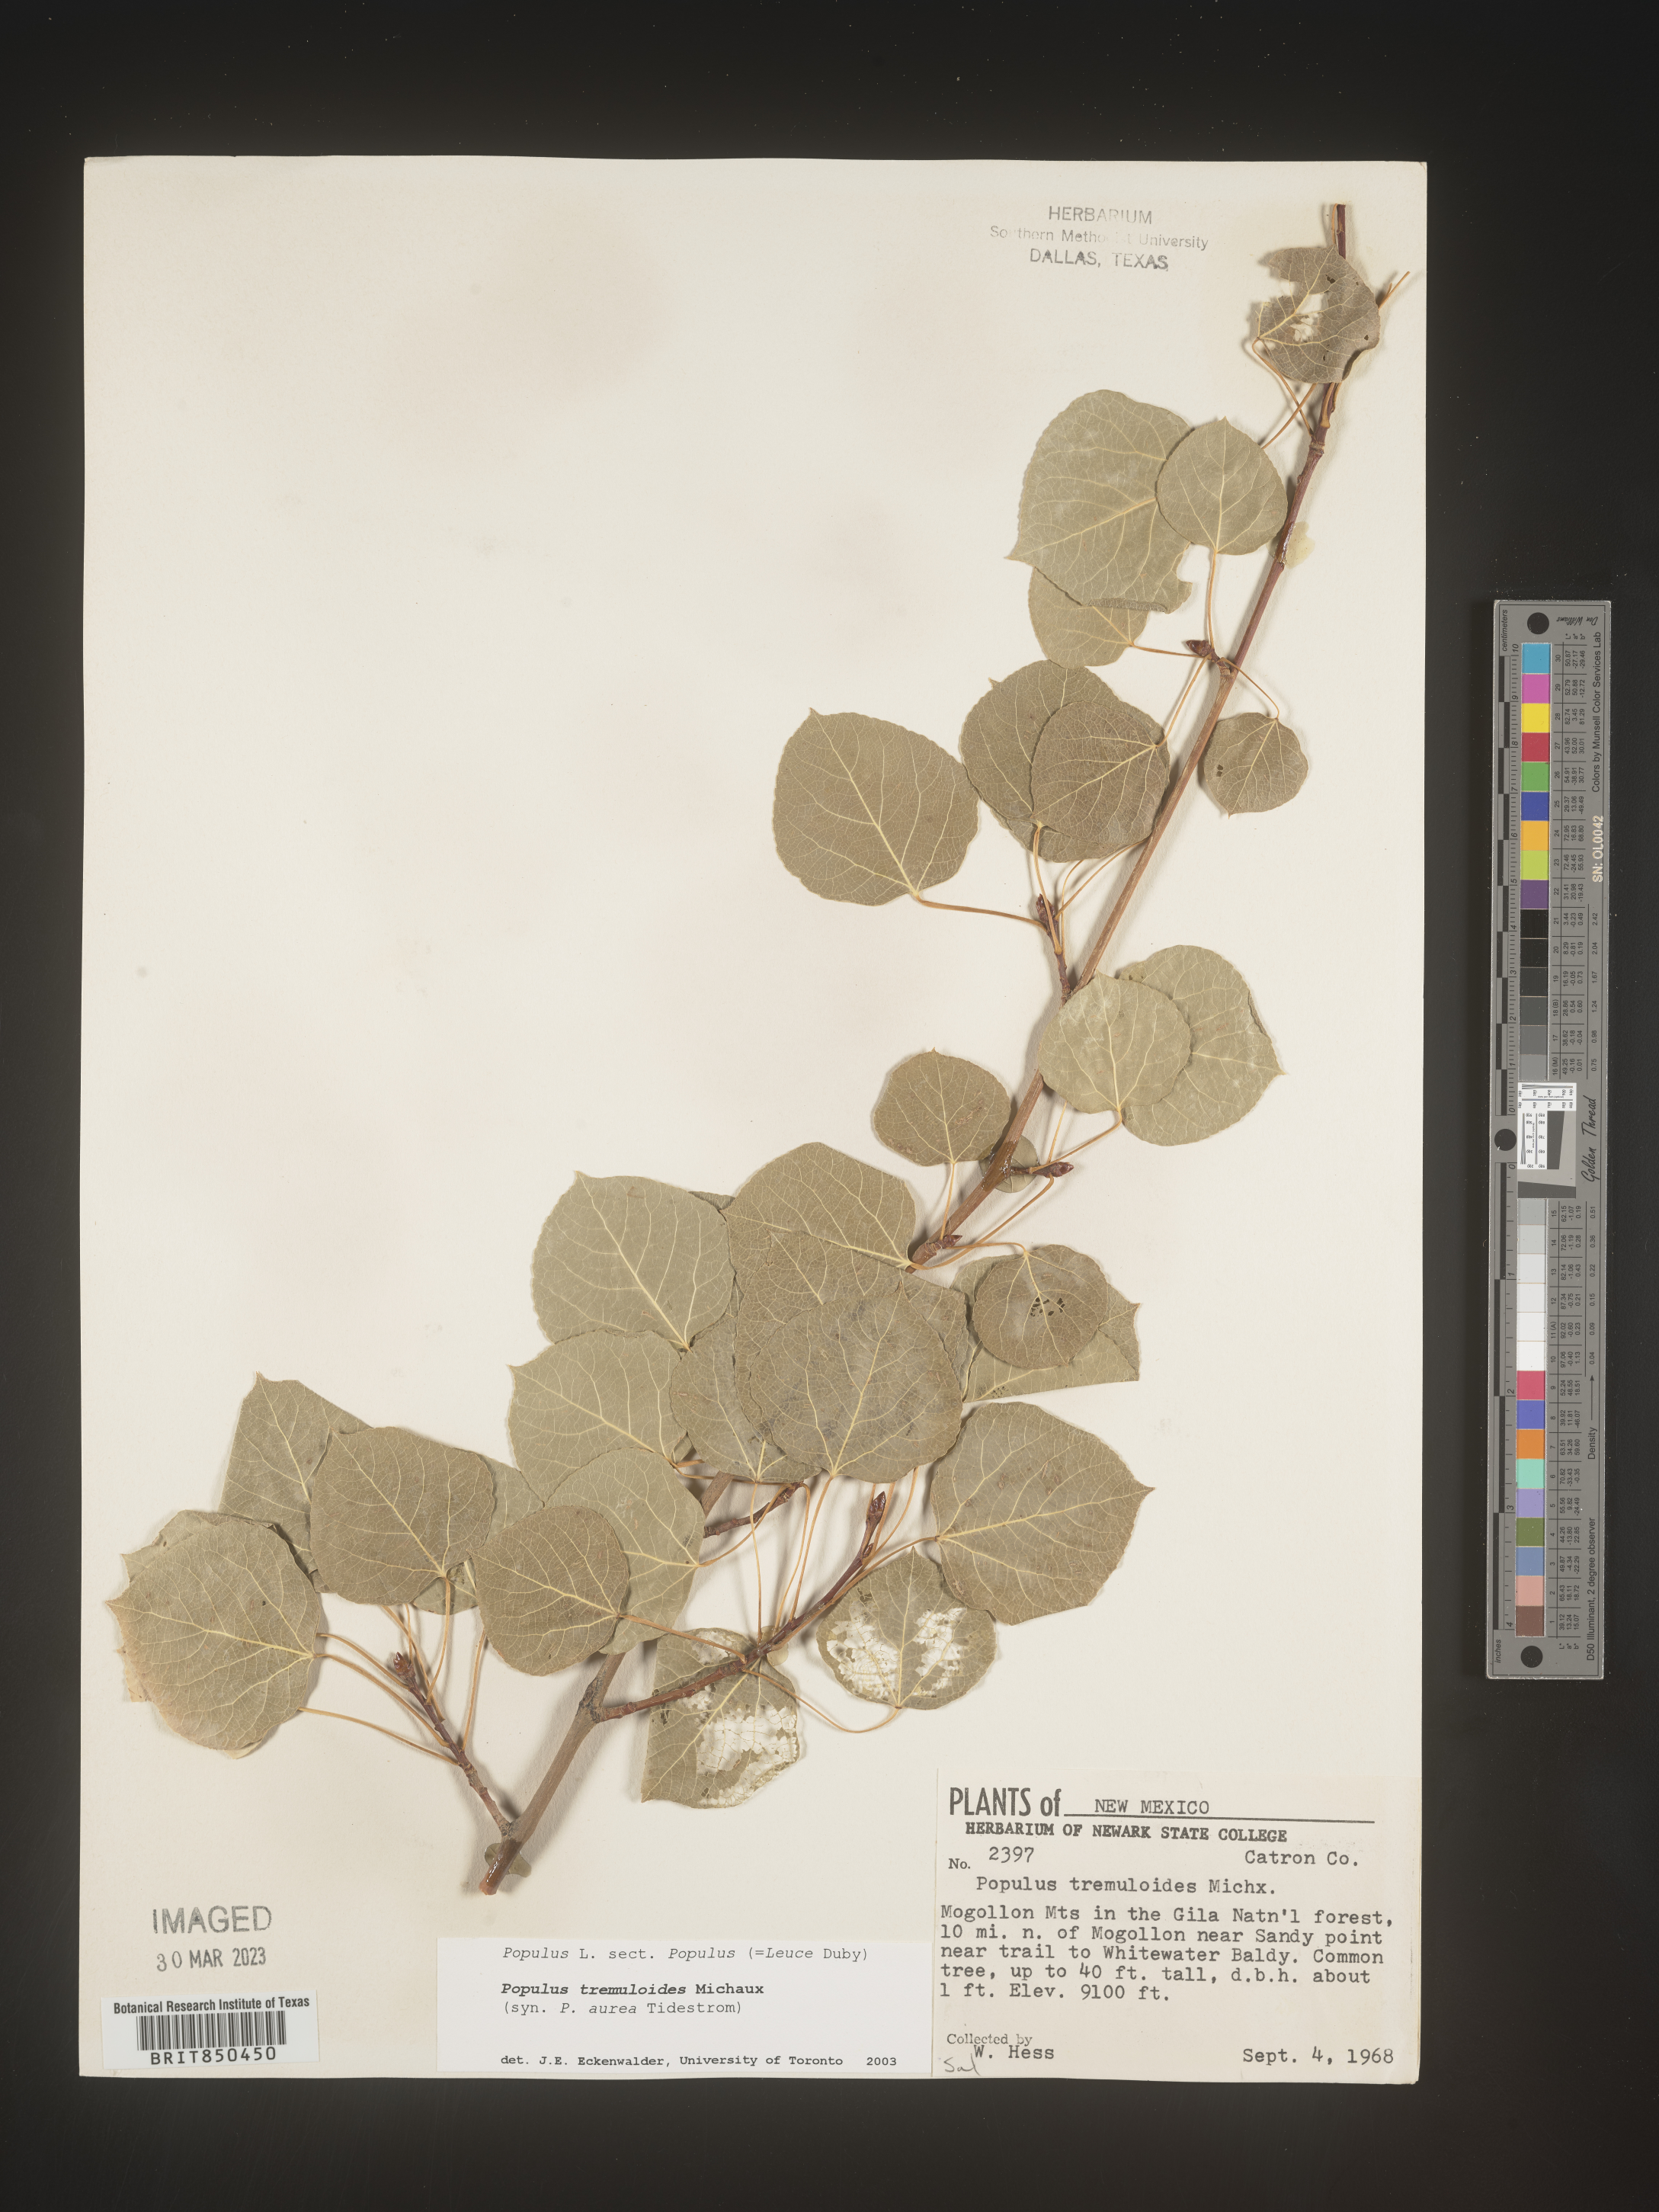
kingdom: Plantae
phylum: Tracheophyta
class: Magnoliopsida
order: Malpighiales
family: Salicaceae
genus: Populus
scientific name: Populus tremuloides
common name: Quaking aspen
